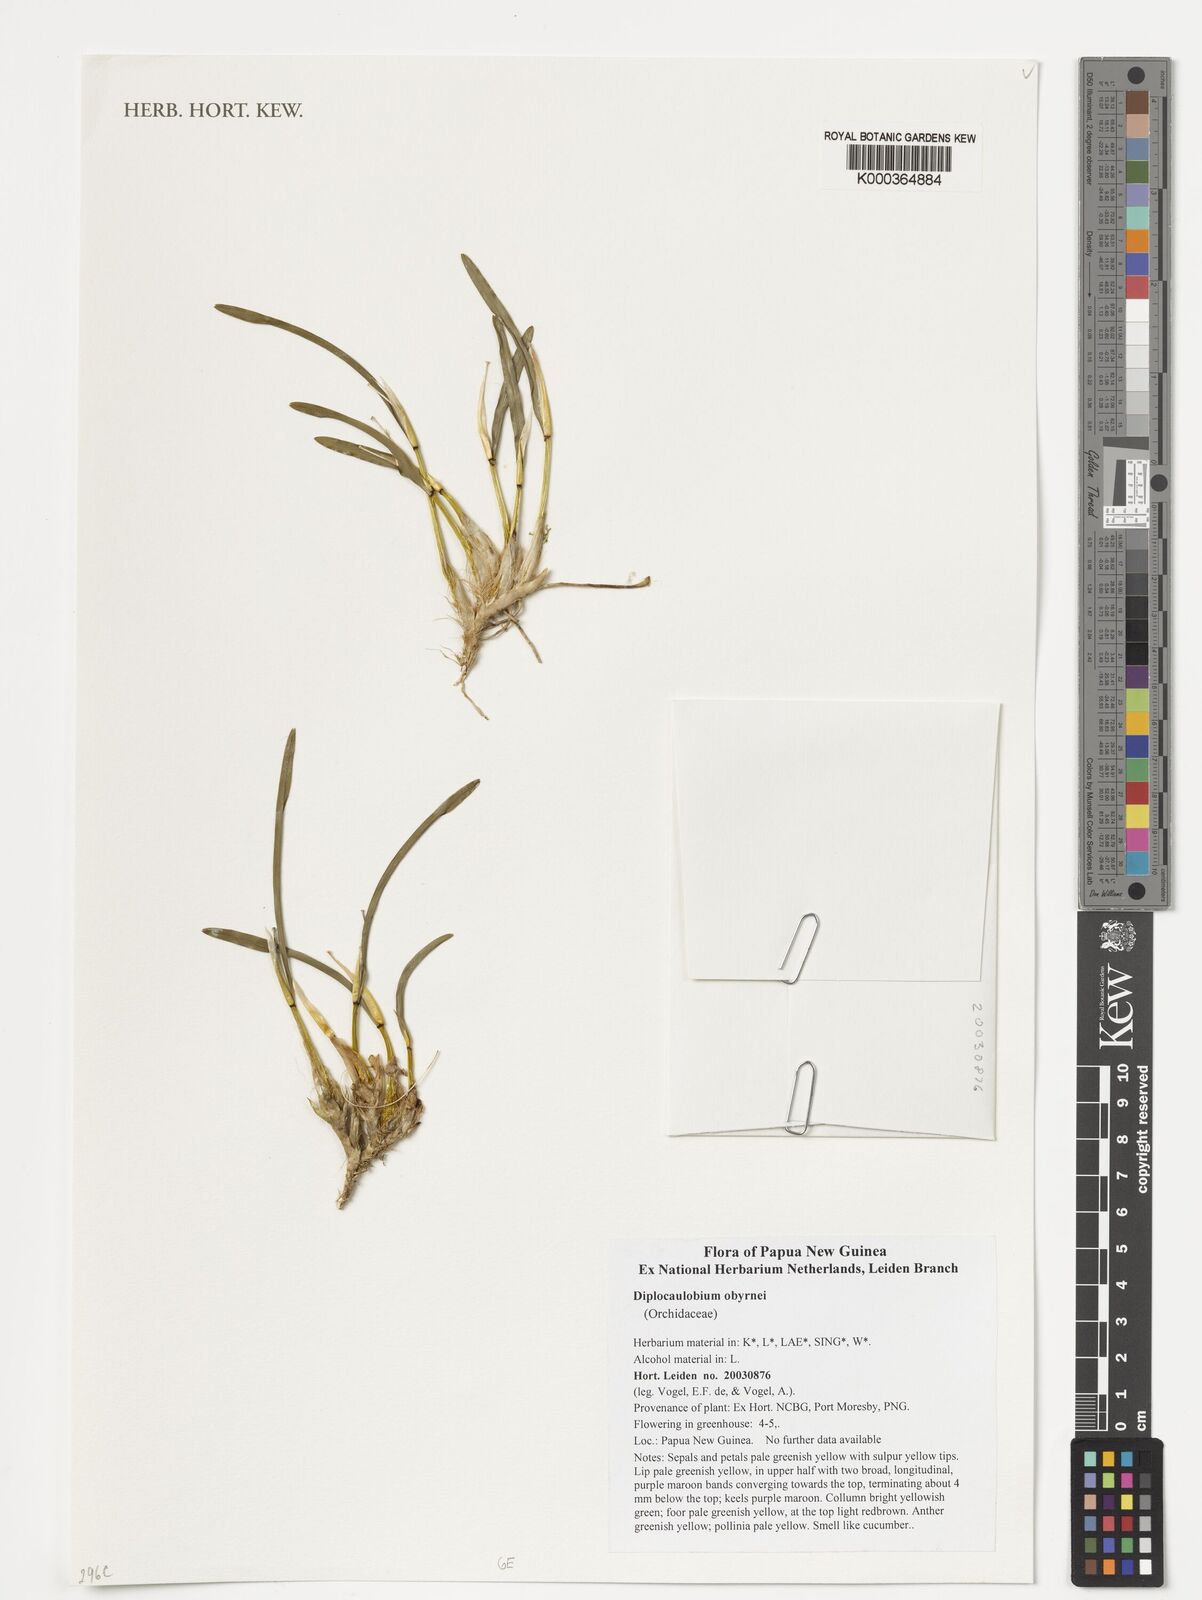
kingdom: Plantae
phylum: Tracheophyta
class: Liliopsida
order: Asparagales
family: Orchidaceae
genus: Dendrobium
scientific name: Dendrobium obyrnei
